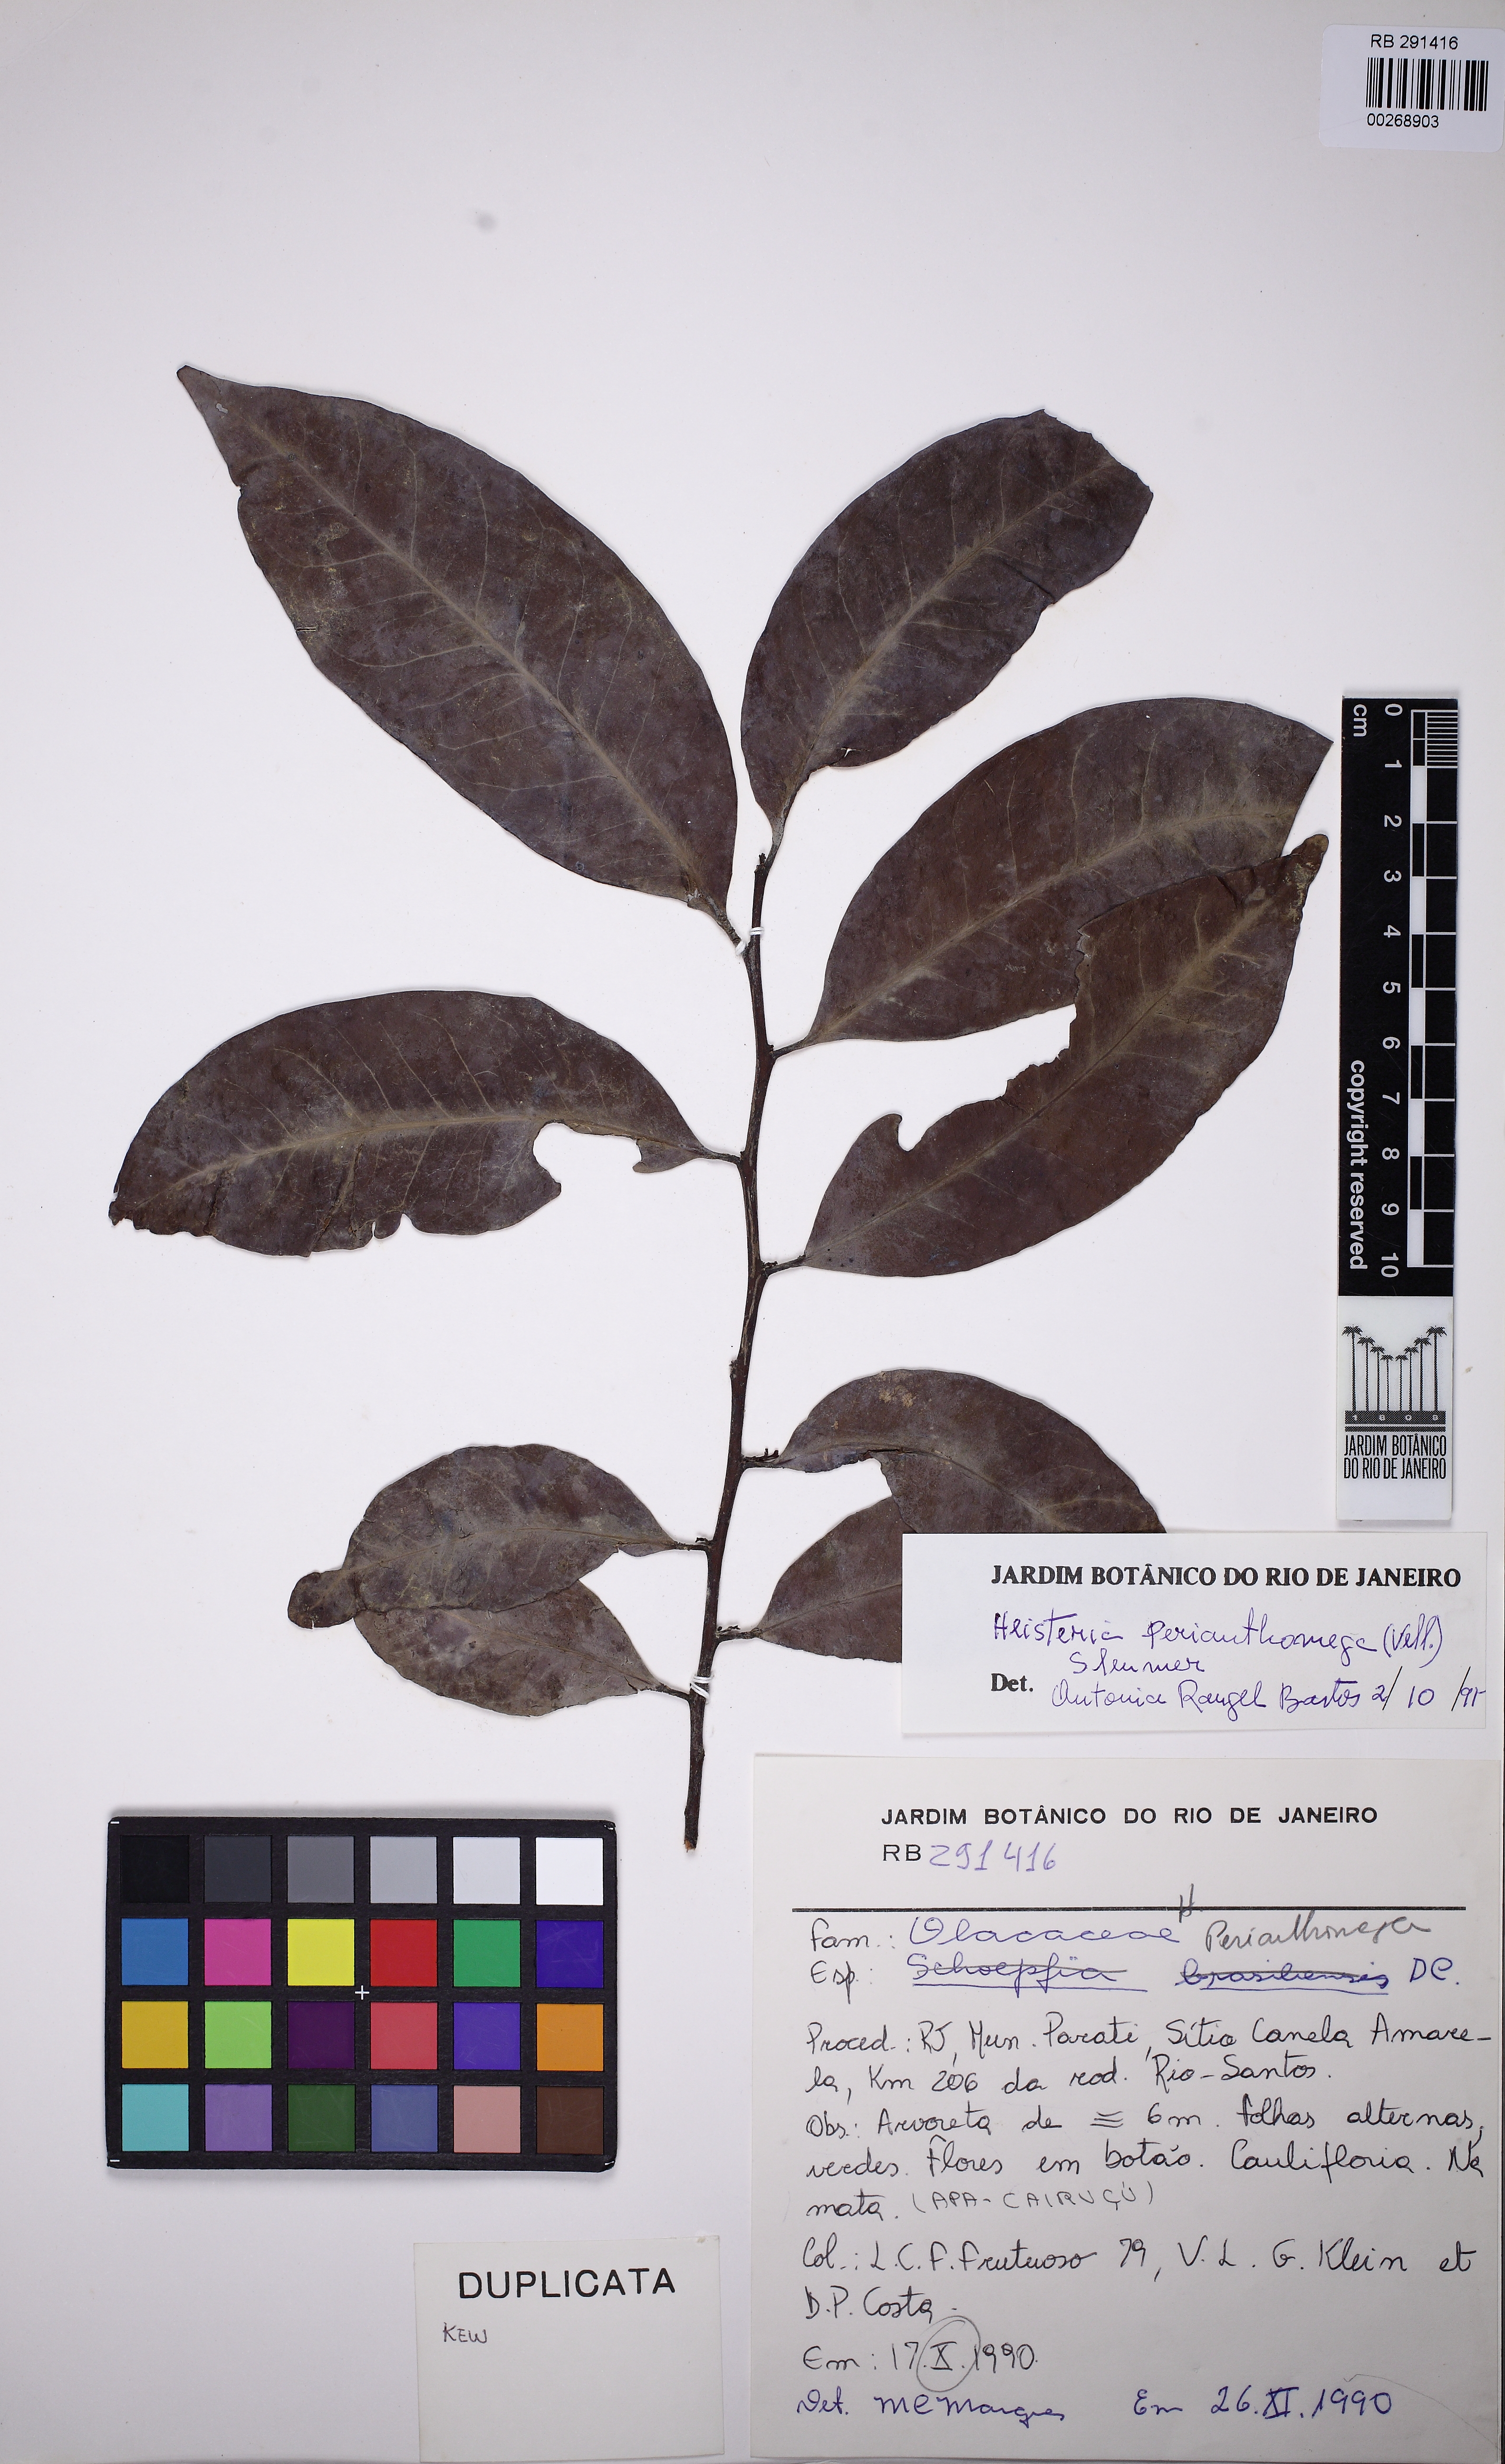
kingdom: Plantae
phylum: Tracheophyta
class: Magnoliopsida
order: Santalales
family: Erythropalaceae
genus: Heisteria
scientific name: Heisteria perianthomega
